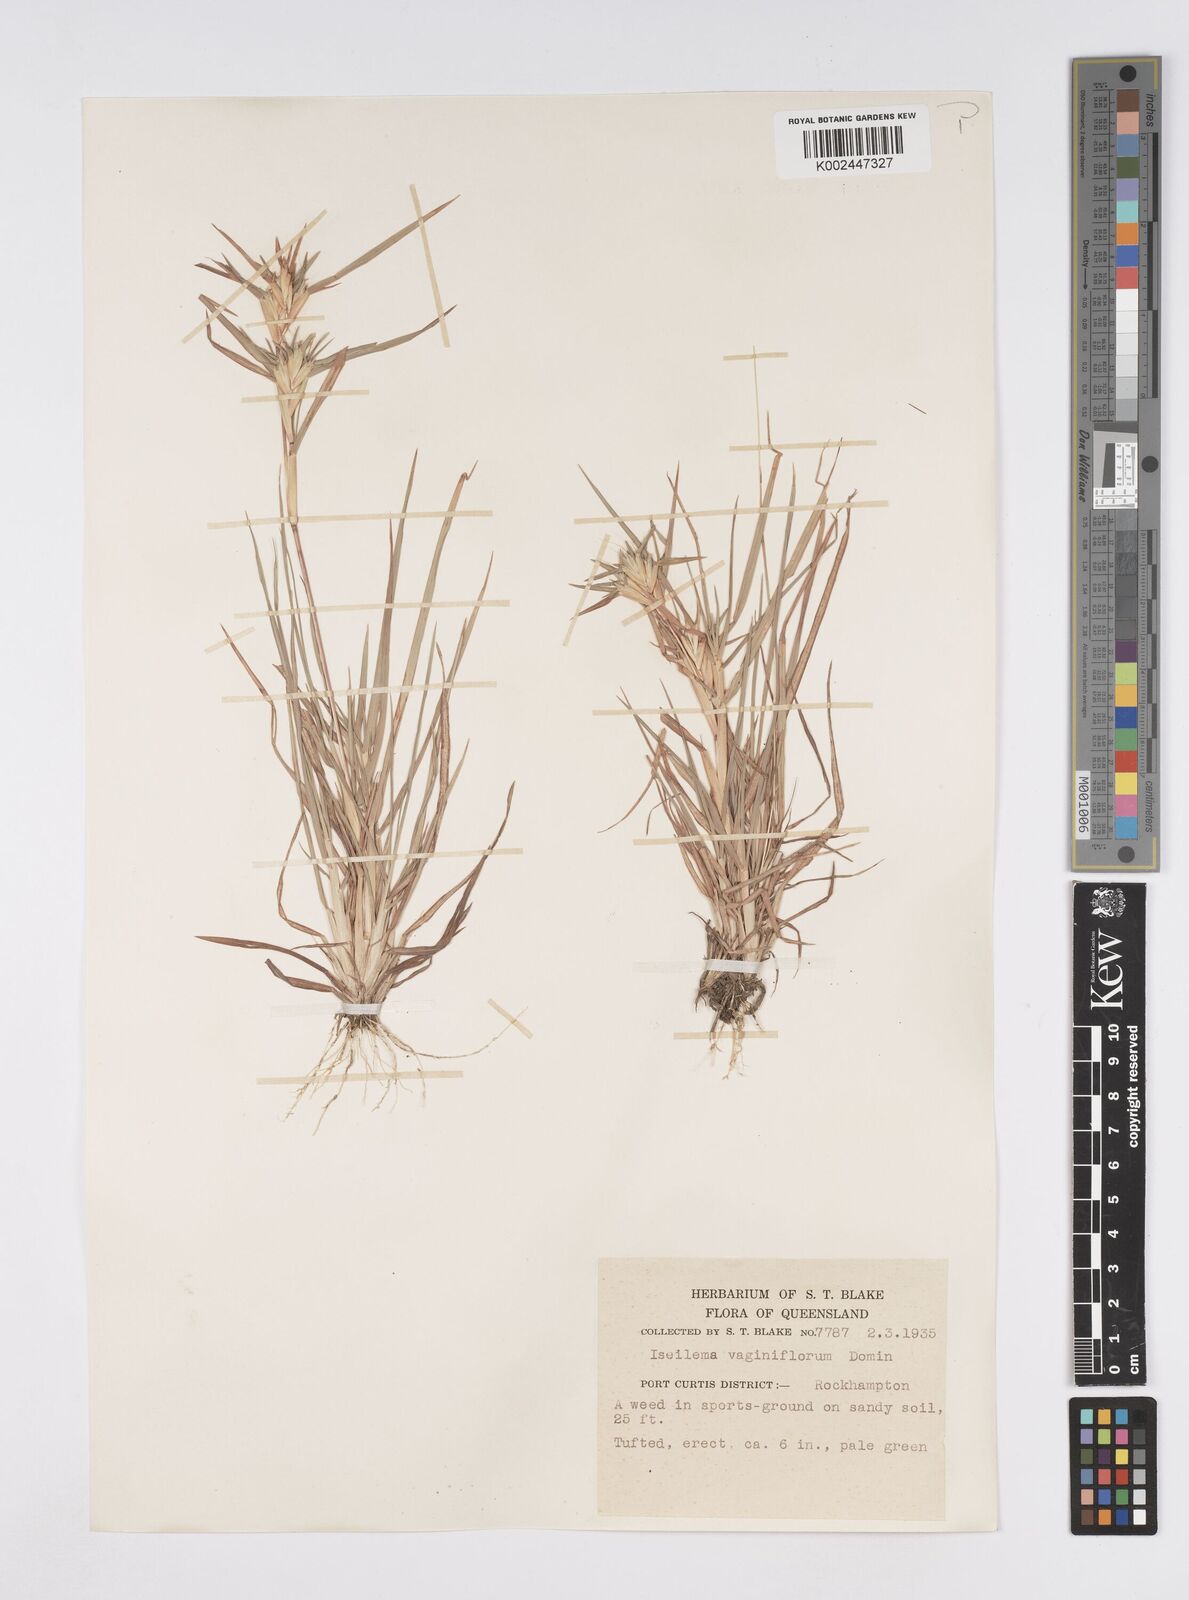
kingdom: Plantae
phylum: Tracheophyta
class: Liliopsida
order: Poales
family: Poaceae
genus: Iseilema
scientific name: Iseilema vaginiflorum
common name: Red flinders grass
